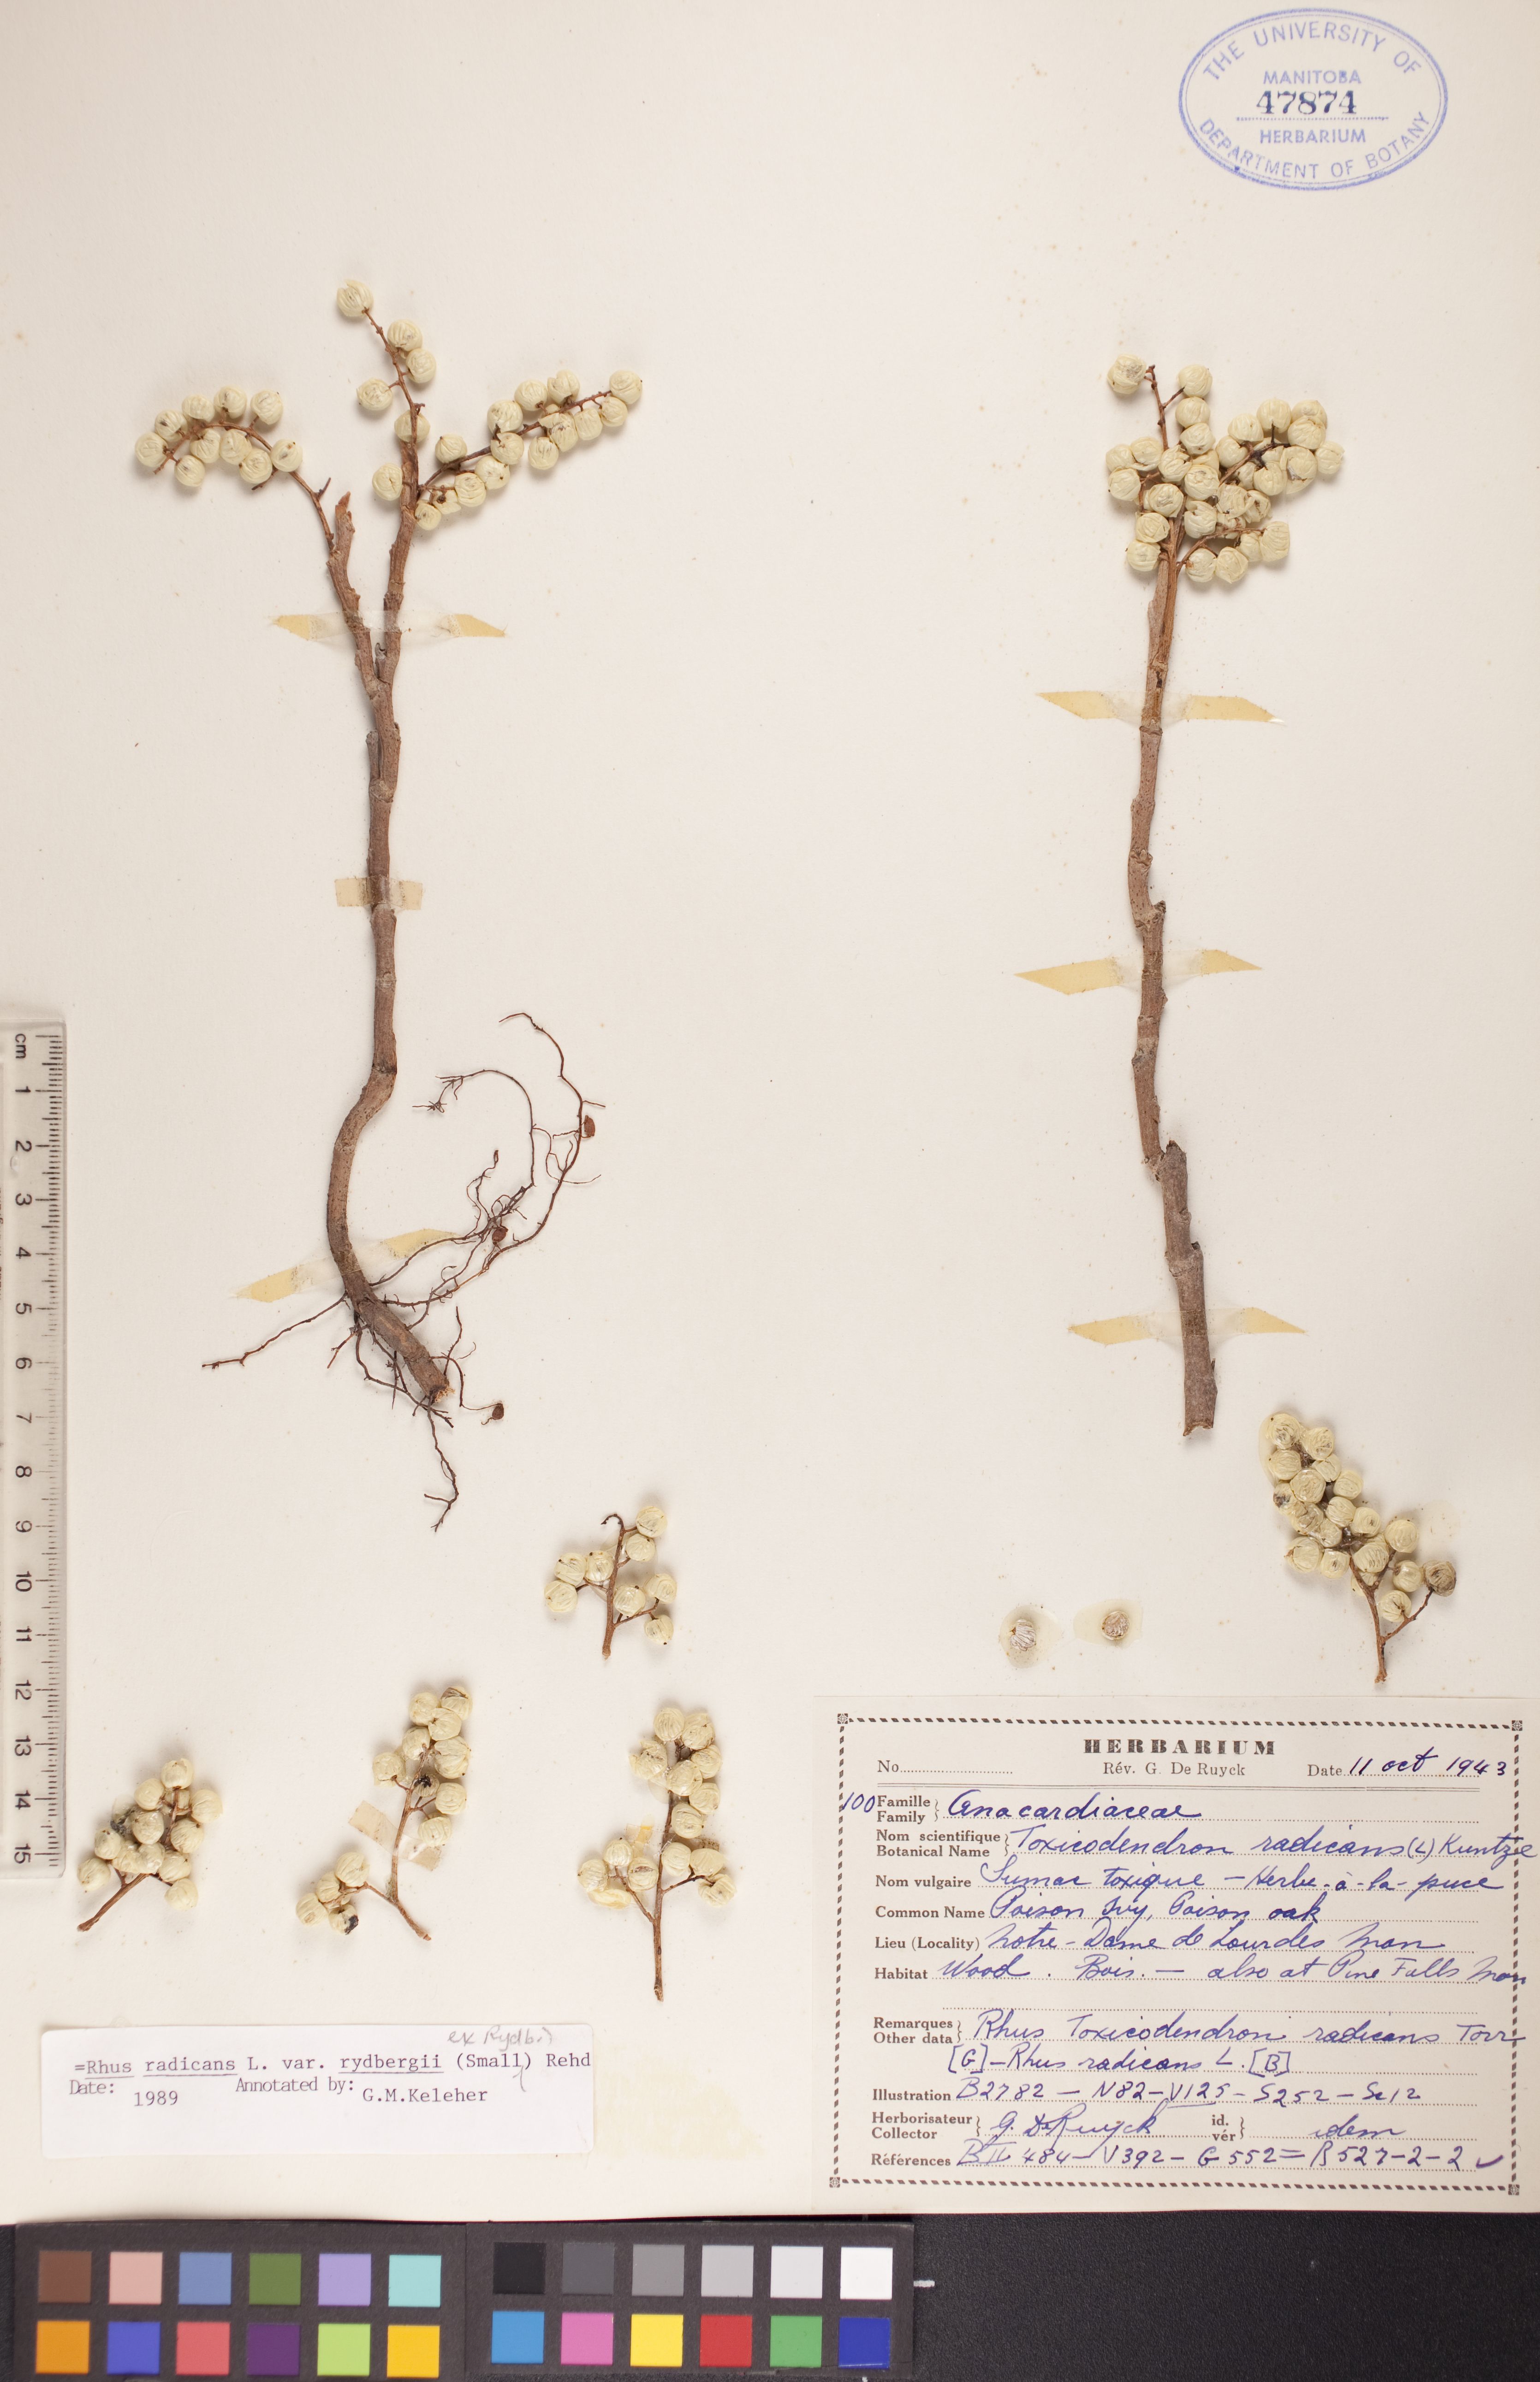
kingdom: Plantae
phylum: Tracheophyta
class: Magnoliopsida
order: Sapindales
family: Anacardiaceae
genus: Toxicodendron
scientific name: Toxicodendron radicans
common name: Poison ivy
